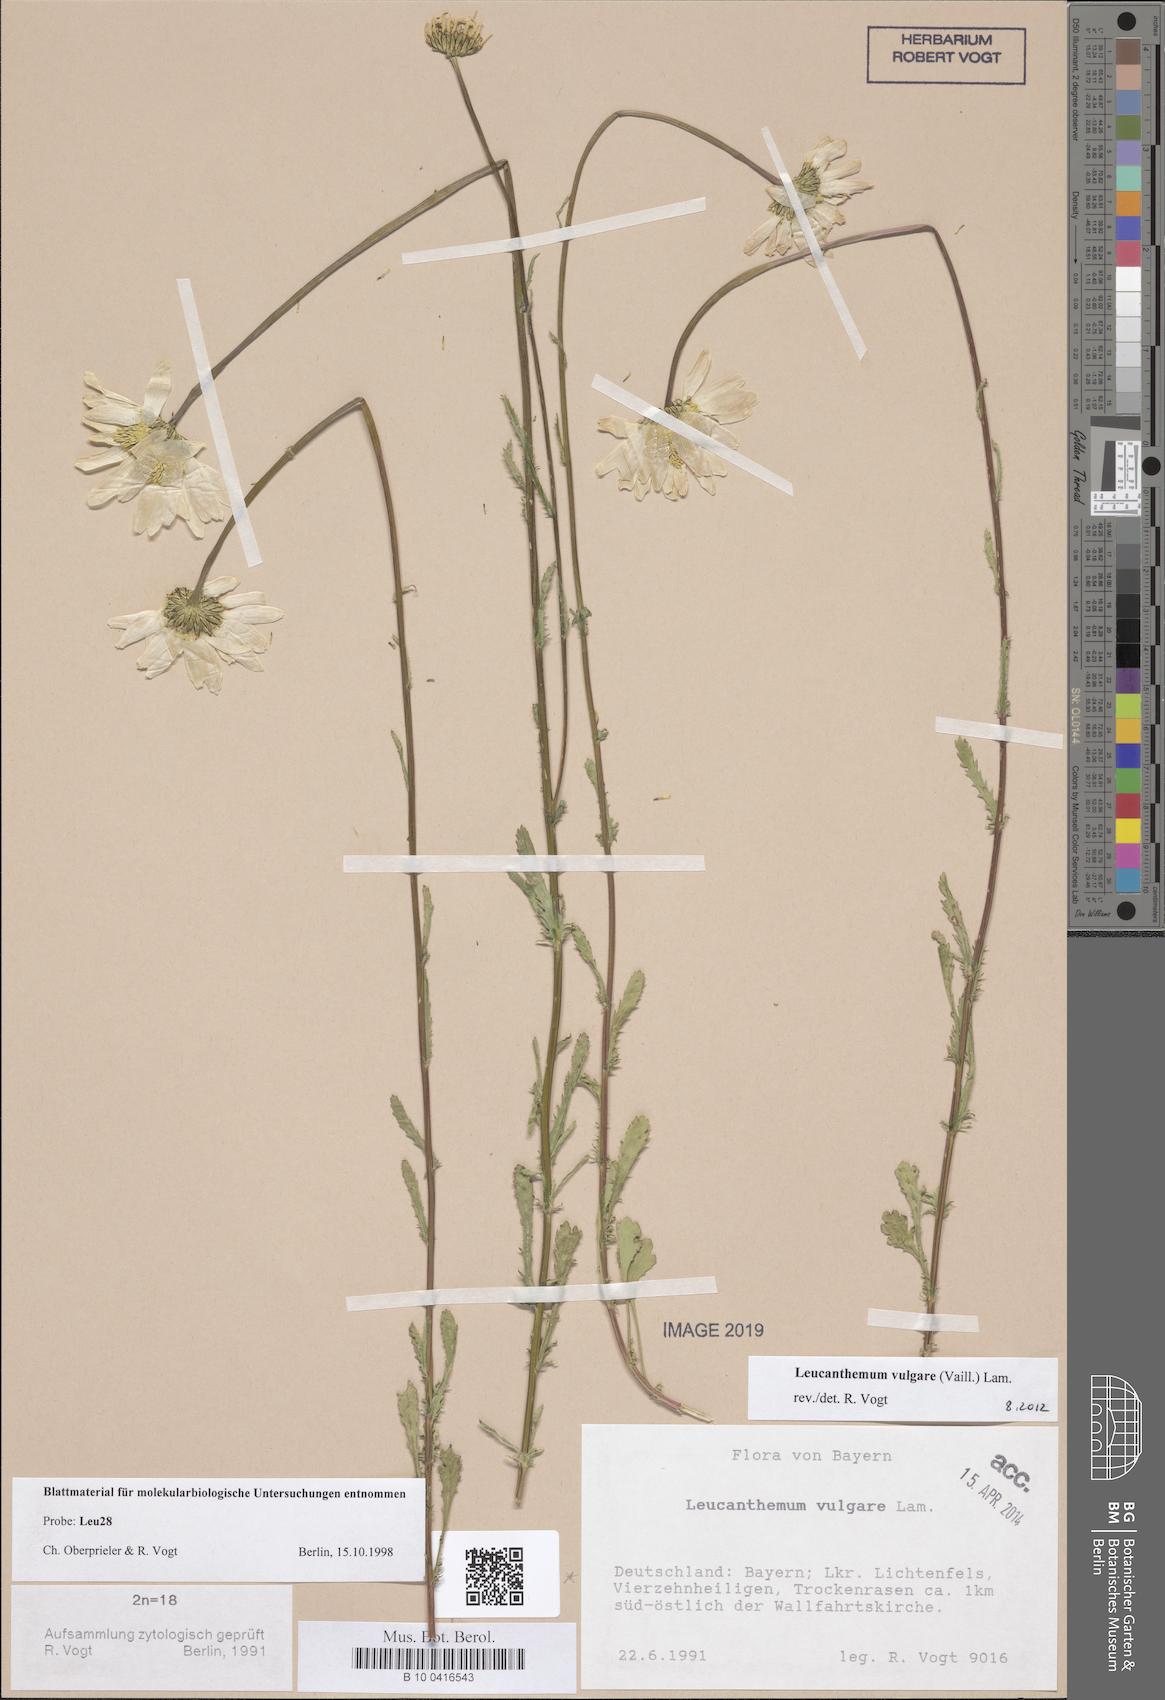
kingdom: Plantae
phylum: Tracheophyta
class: Magnoliopsida
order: Asterales
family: Asteraceae
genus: Leucanthemum
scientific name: Leucanthemum vulgare
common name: Oxeye daisy
